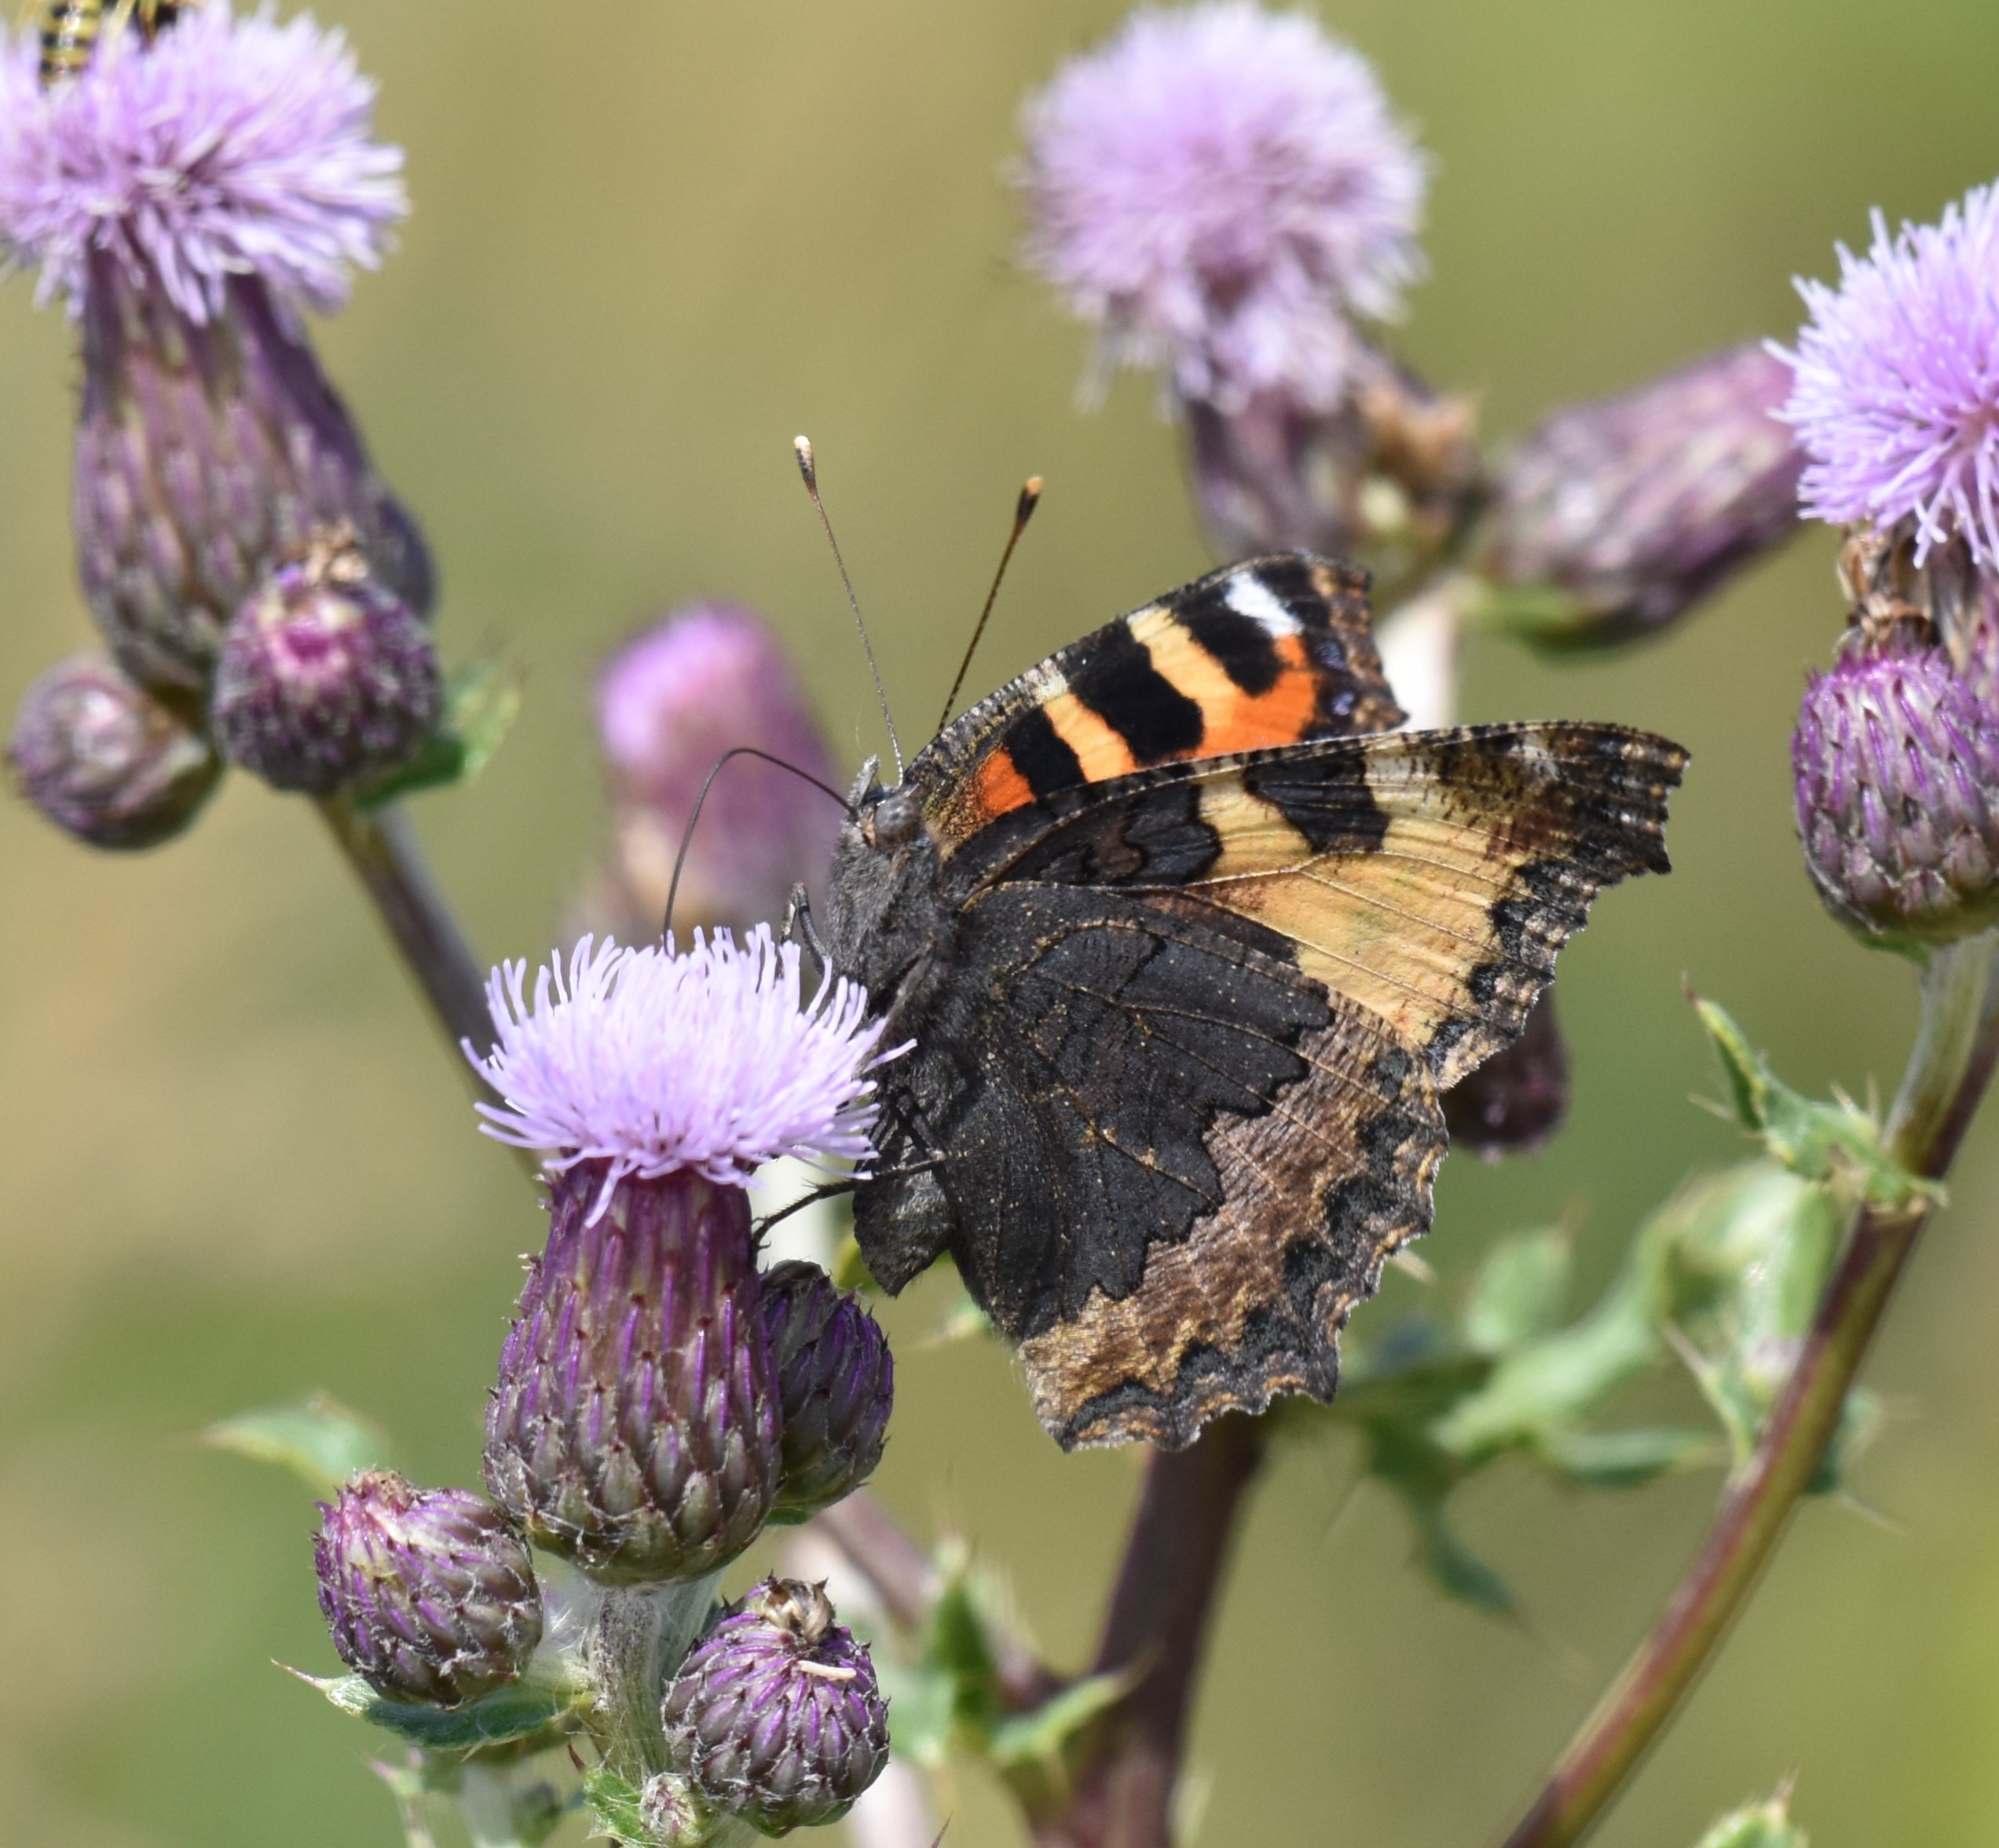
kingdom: Animalia
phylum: Arthropoda
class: Insecta
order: Lepidoptera
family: Nymphalidae
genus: Aglais
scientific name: Aglais urticae
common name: Nældens takvinge
